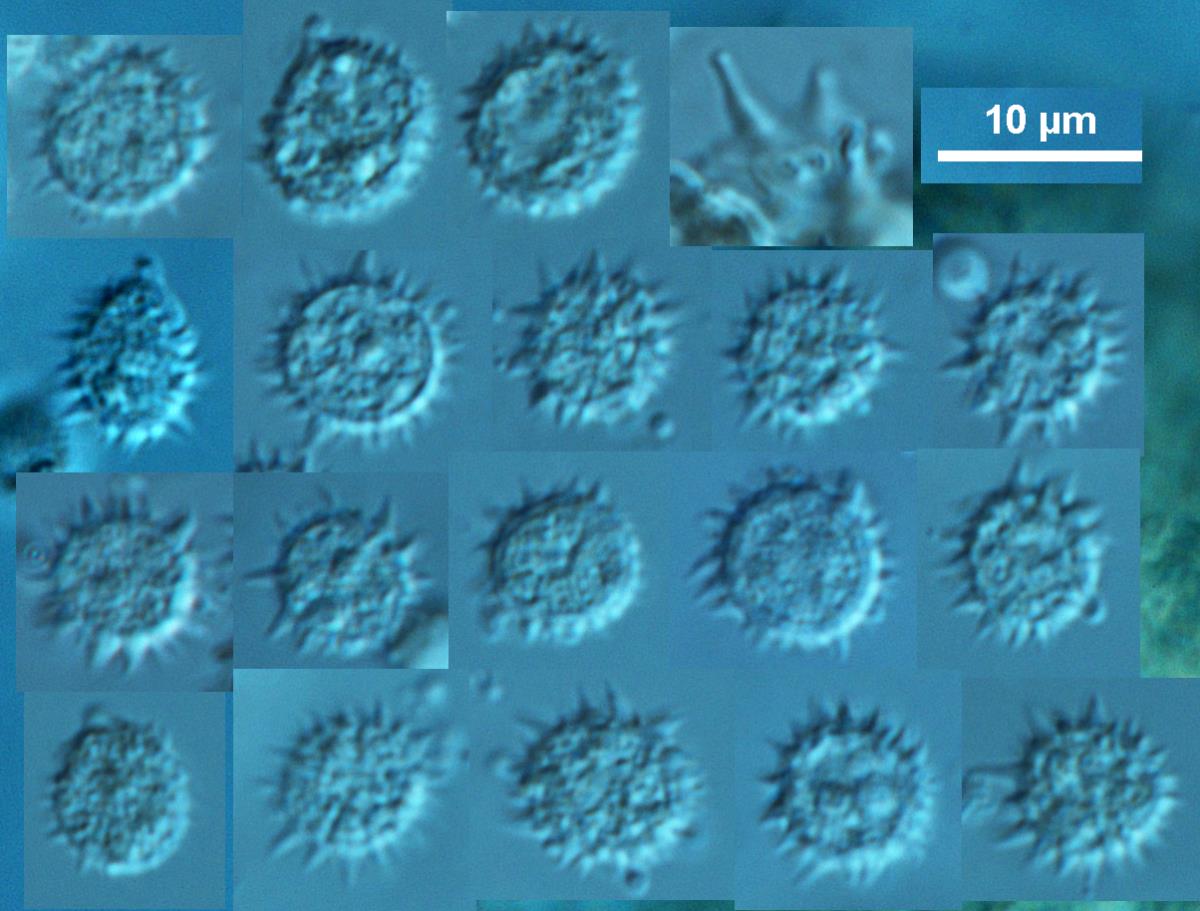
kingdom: Fungi
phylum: Basidiomycota
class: Agaricomycetes
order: Agaricales
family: Hydnangiaceae
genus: Laccaria
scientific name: Laccaria tetraspora
